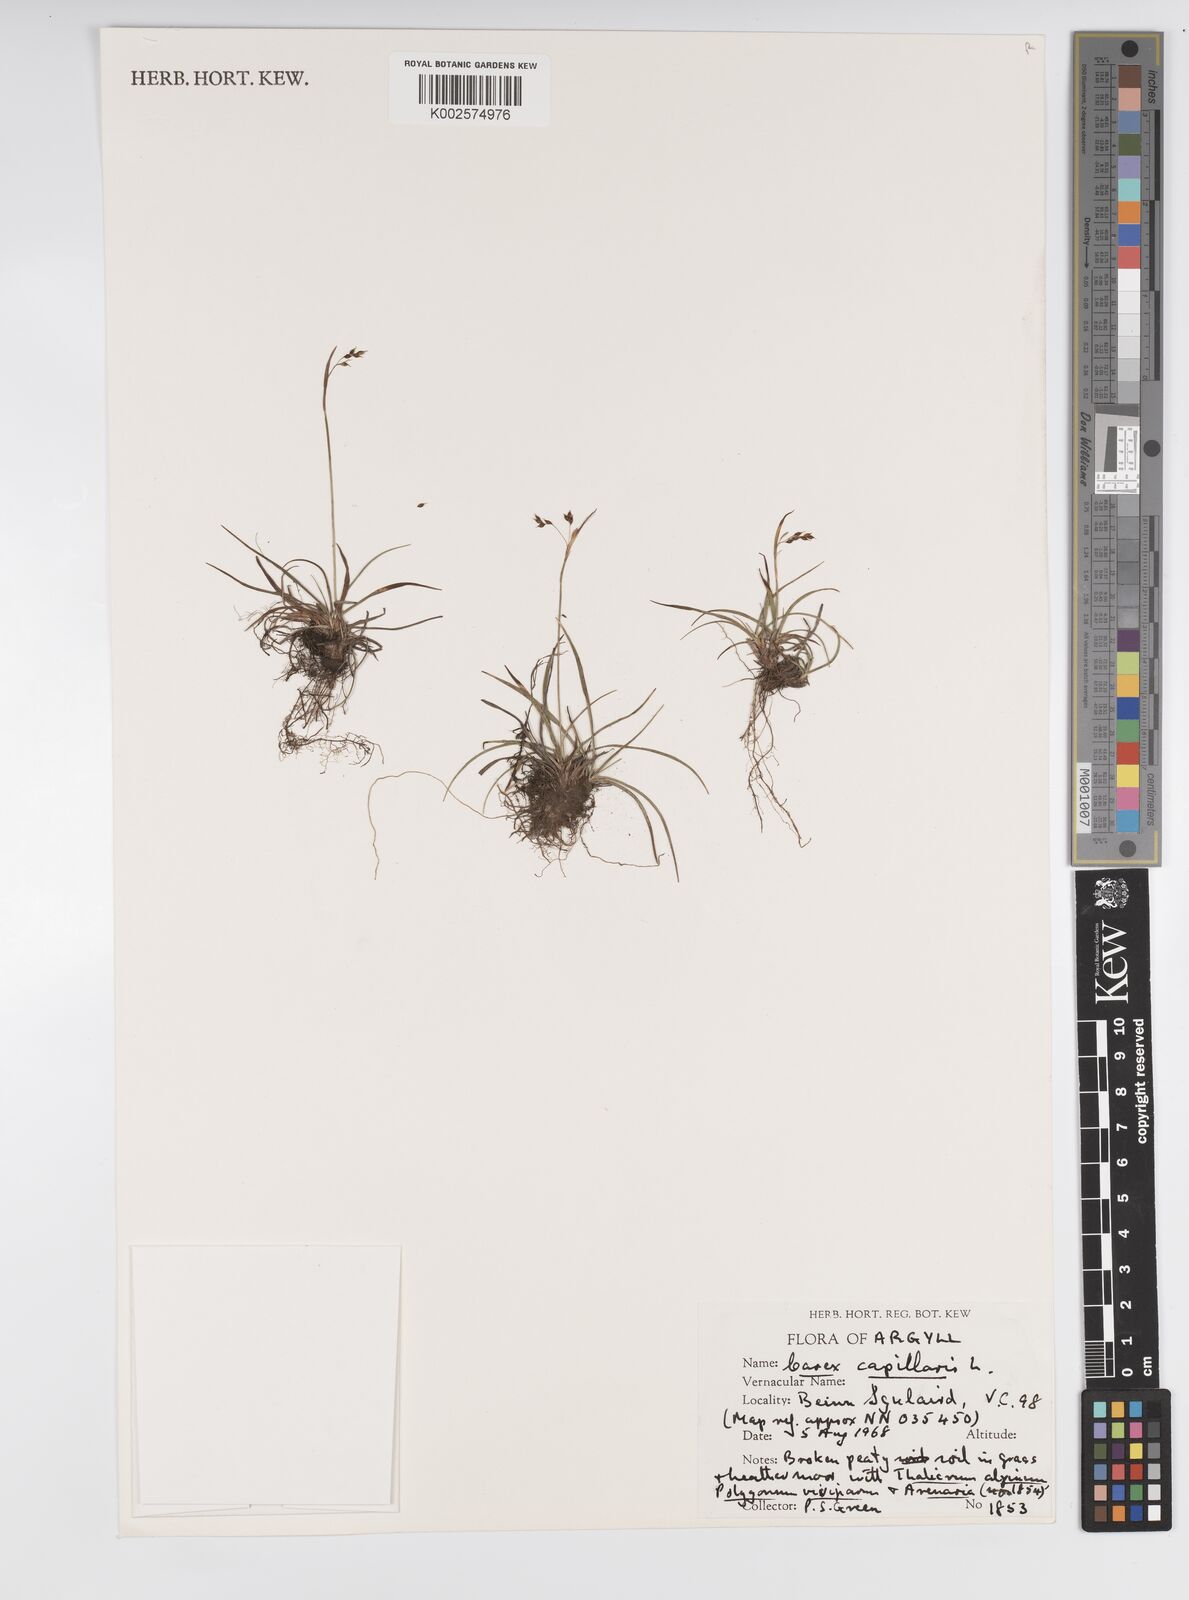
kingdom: Plantae
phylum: Tracheophyta
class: Liliopsida
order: Poales
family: Cyperaceae
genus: Carex
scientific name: Carex capillaris
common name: Hair sedge
